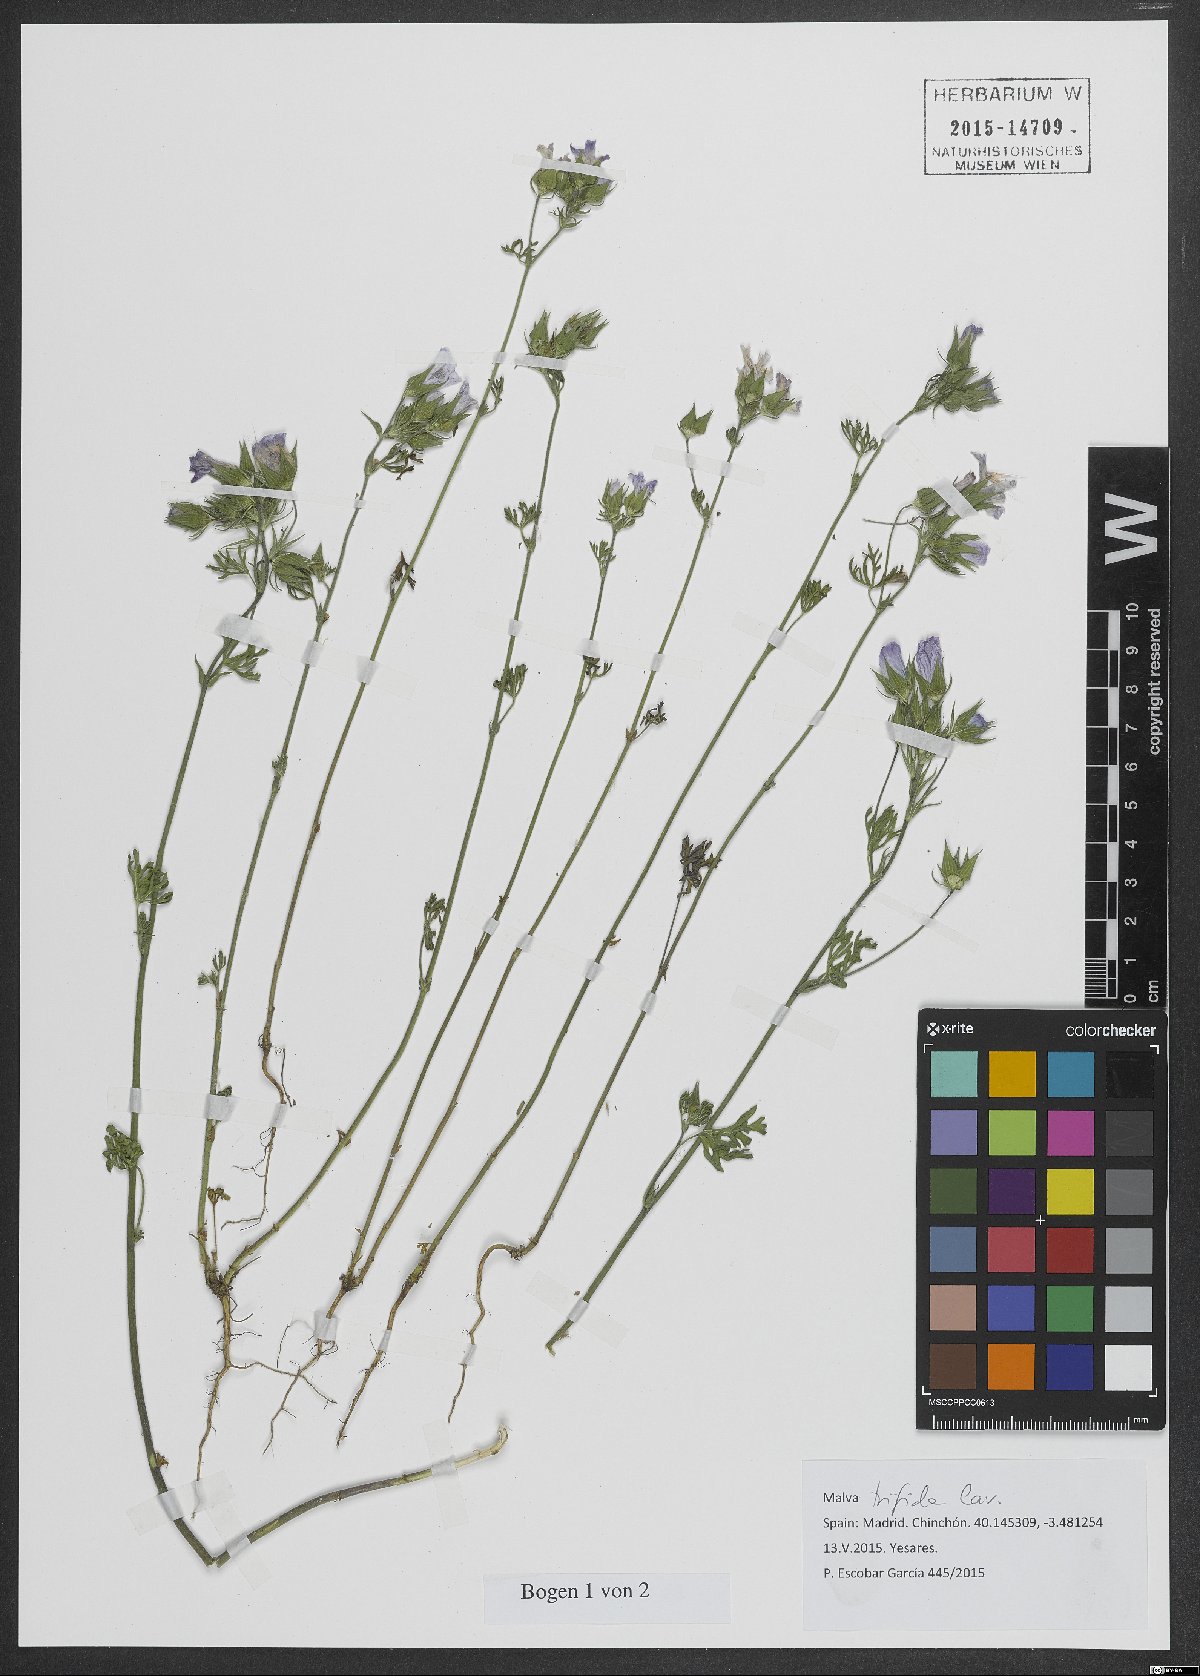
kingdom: Plantae
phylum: Tracheophyta
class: Magnoliopsida
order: Malvales
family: Malvaceae
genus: Malva
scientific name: Malva trifida
